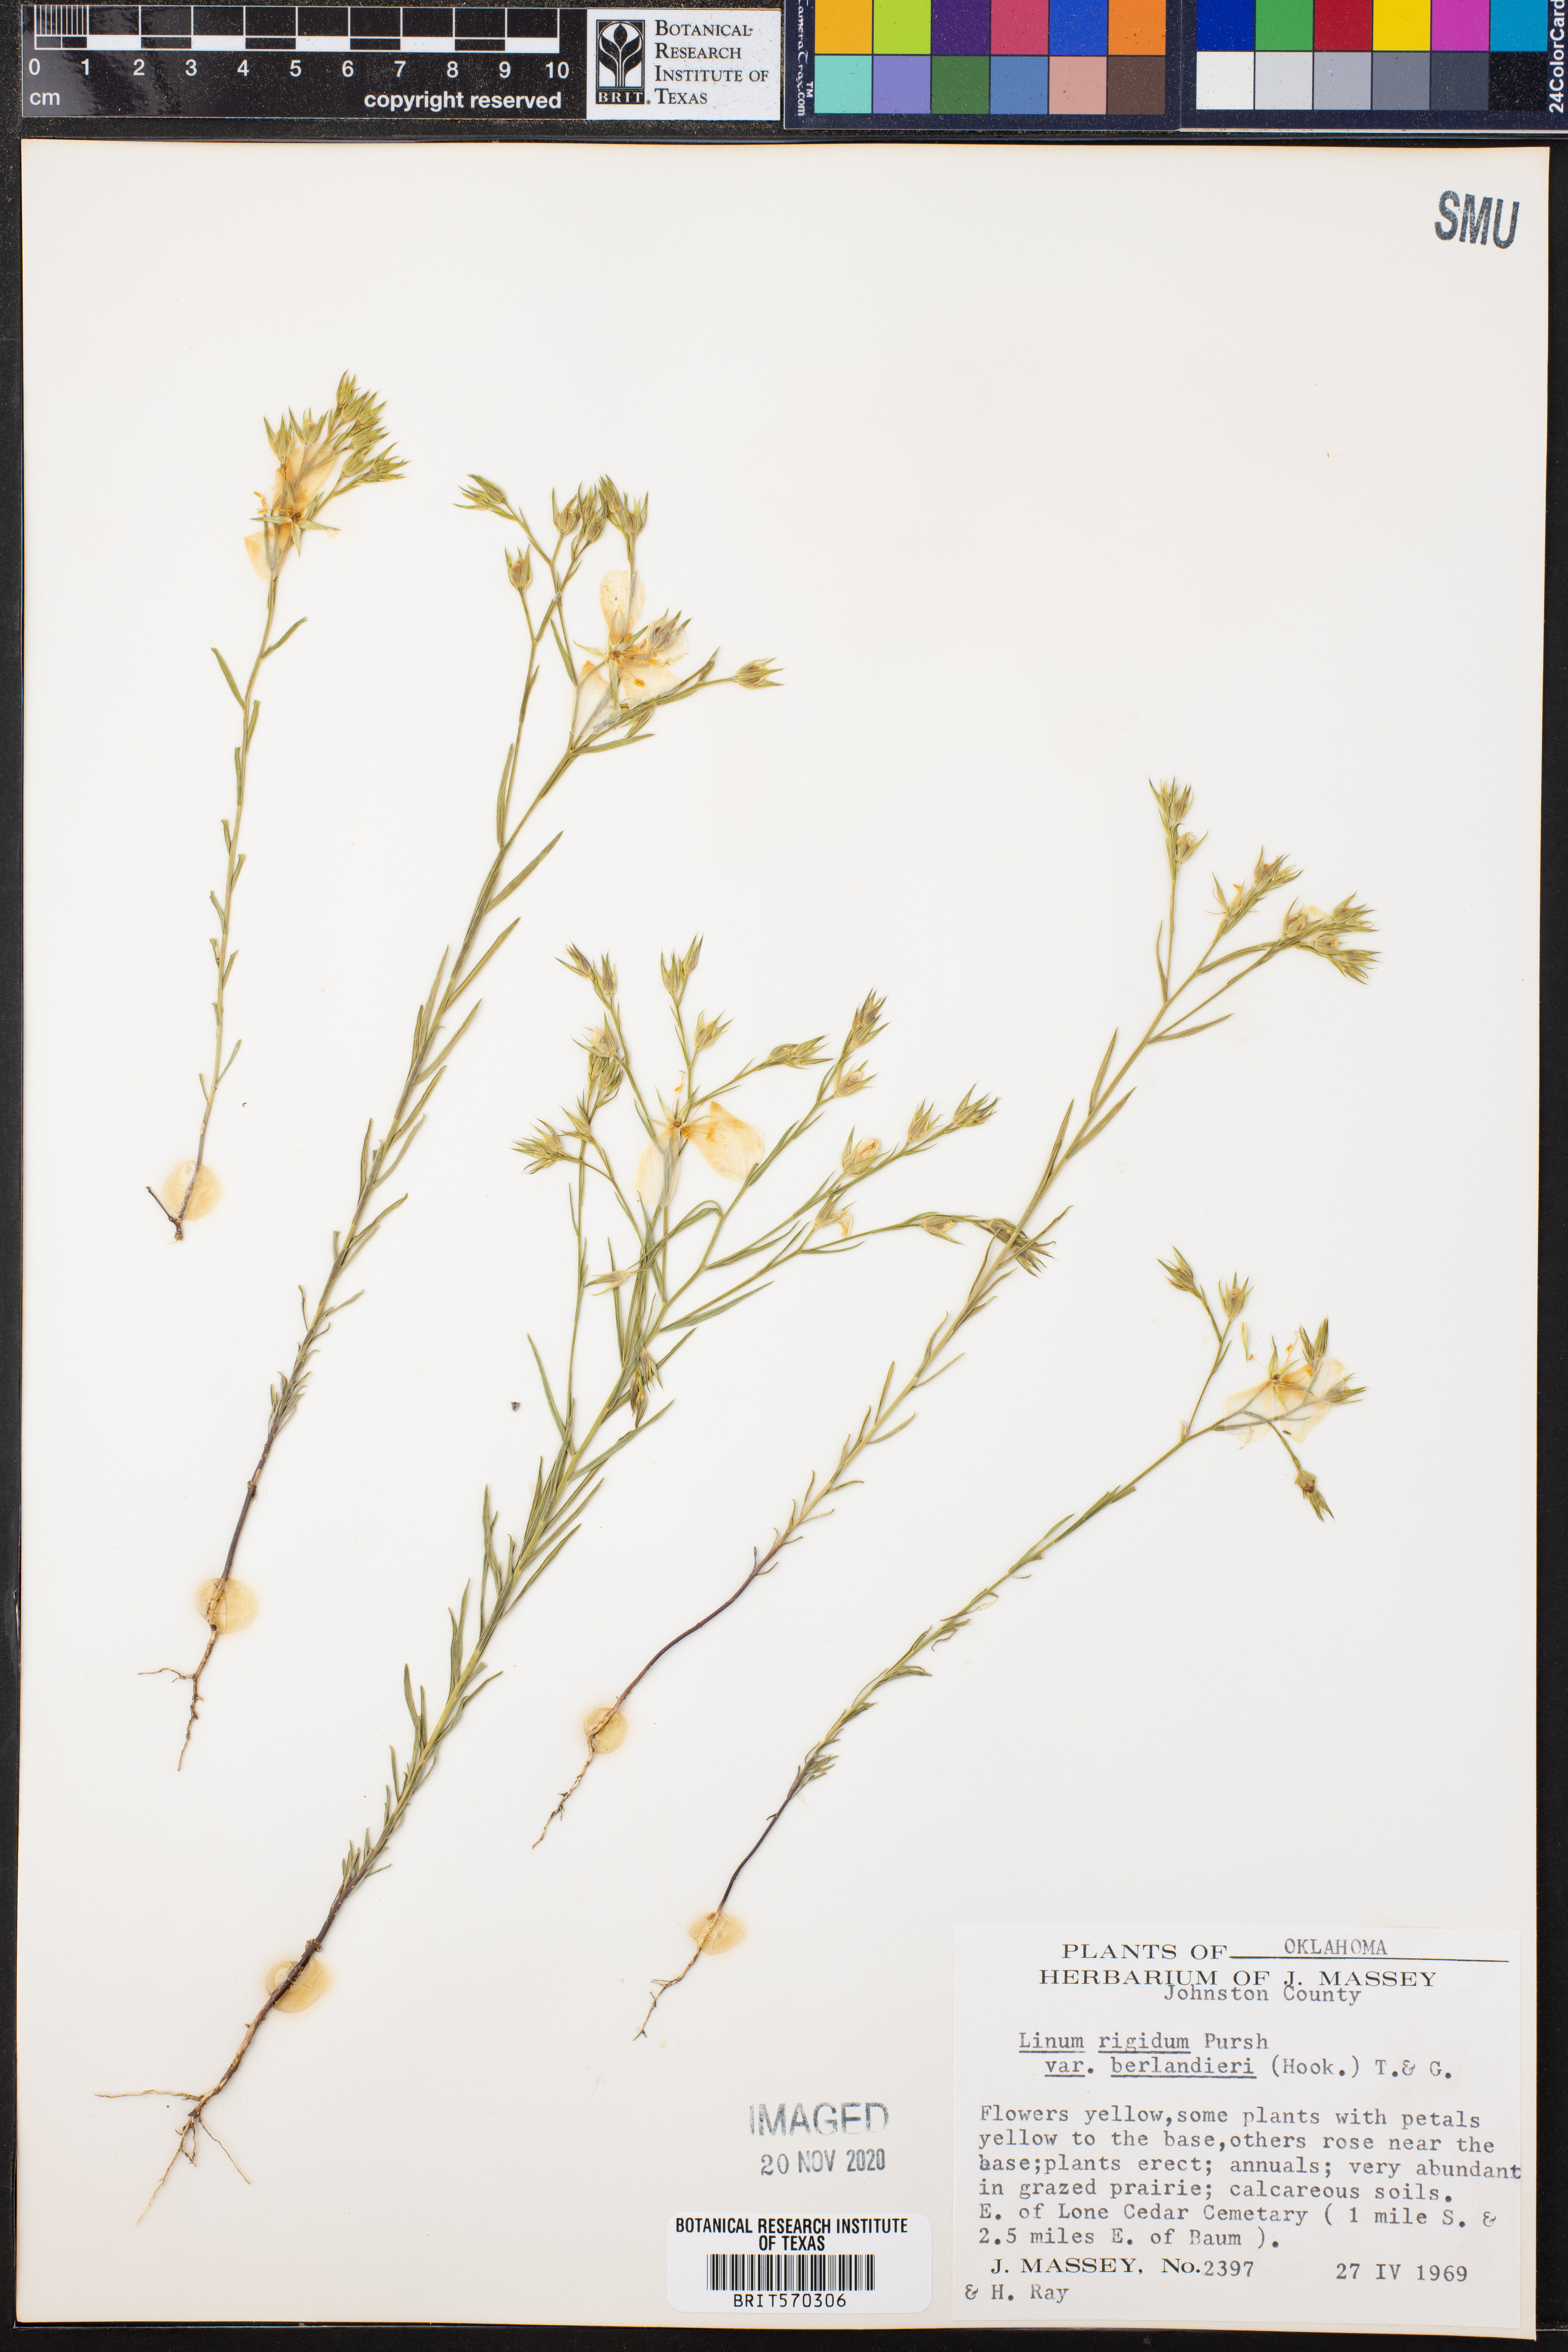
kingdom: Plantae
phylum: Tracheophyta
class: Magnoliopsida
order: Malpighiales
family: Linaceae
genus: Linum
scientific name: Linum berlandieri
